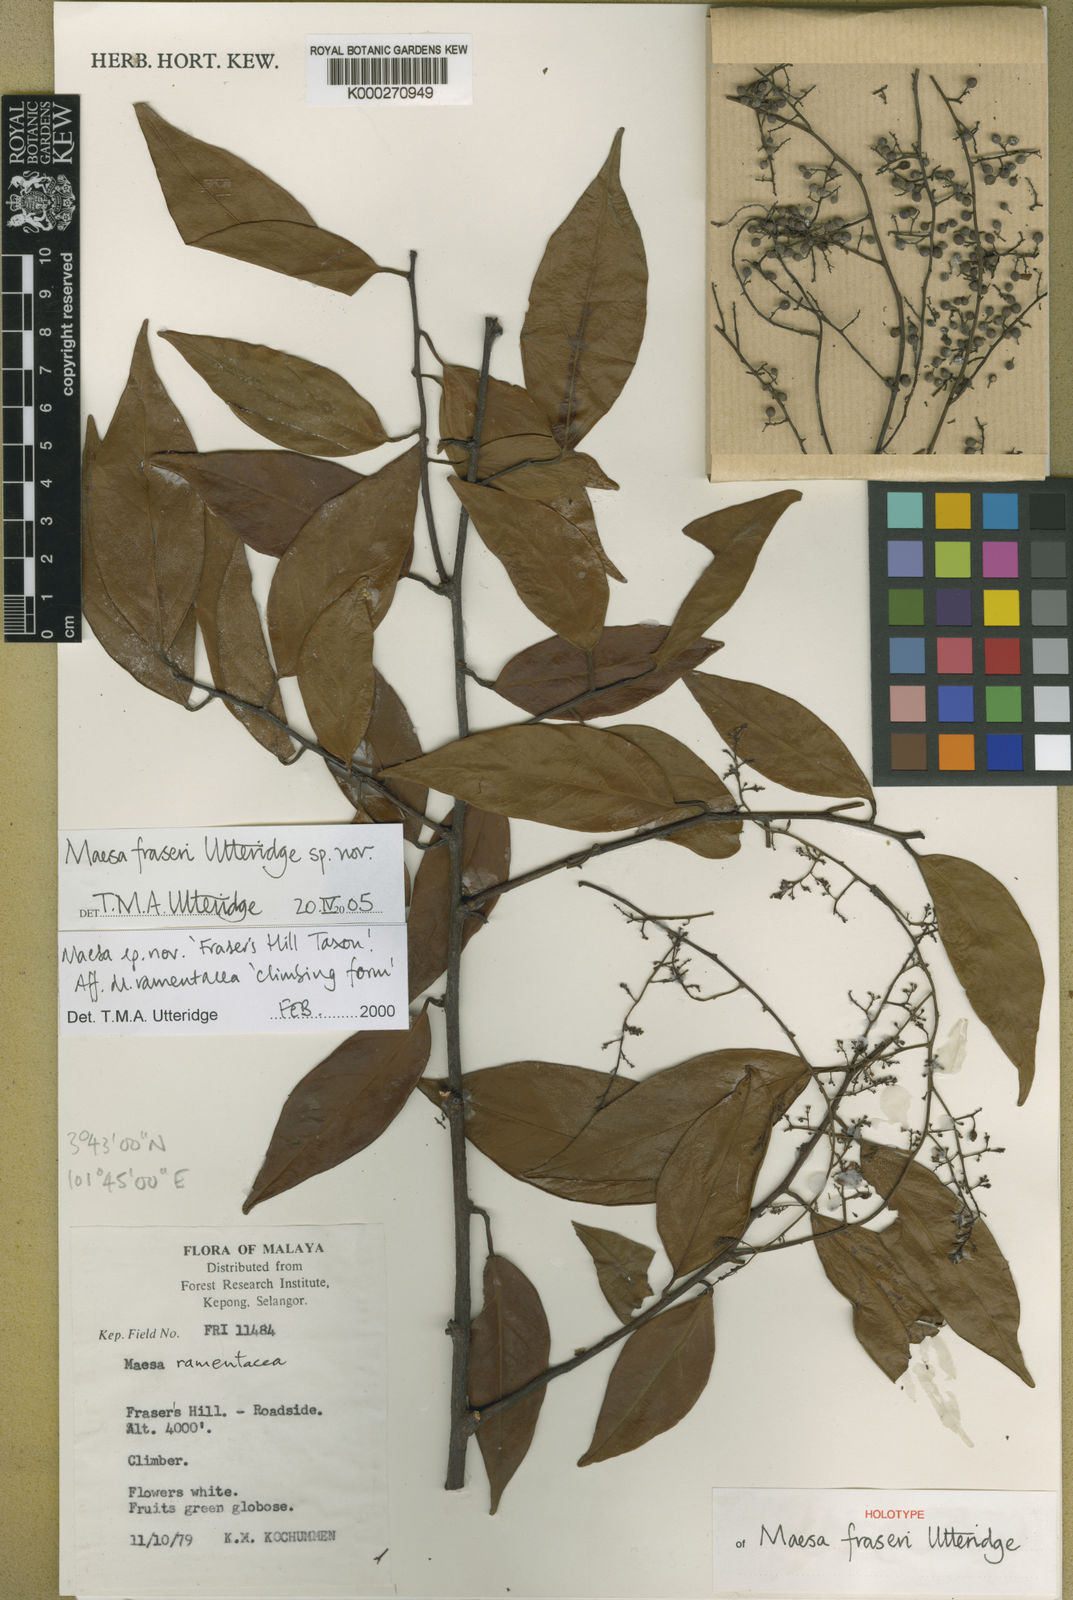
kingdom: Plantae
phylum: Tracheophyta
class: Magnoliopsida
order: Ericales
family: Primulaceae
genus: Maesa
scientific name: Maesa
